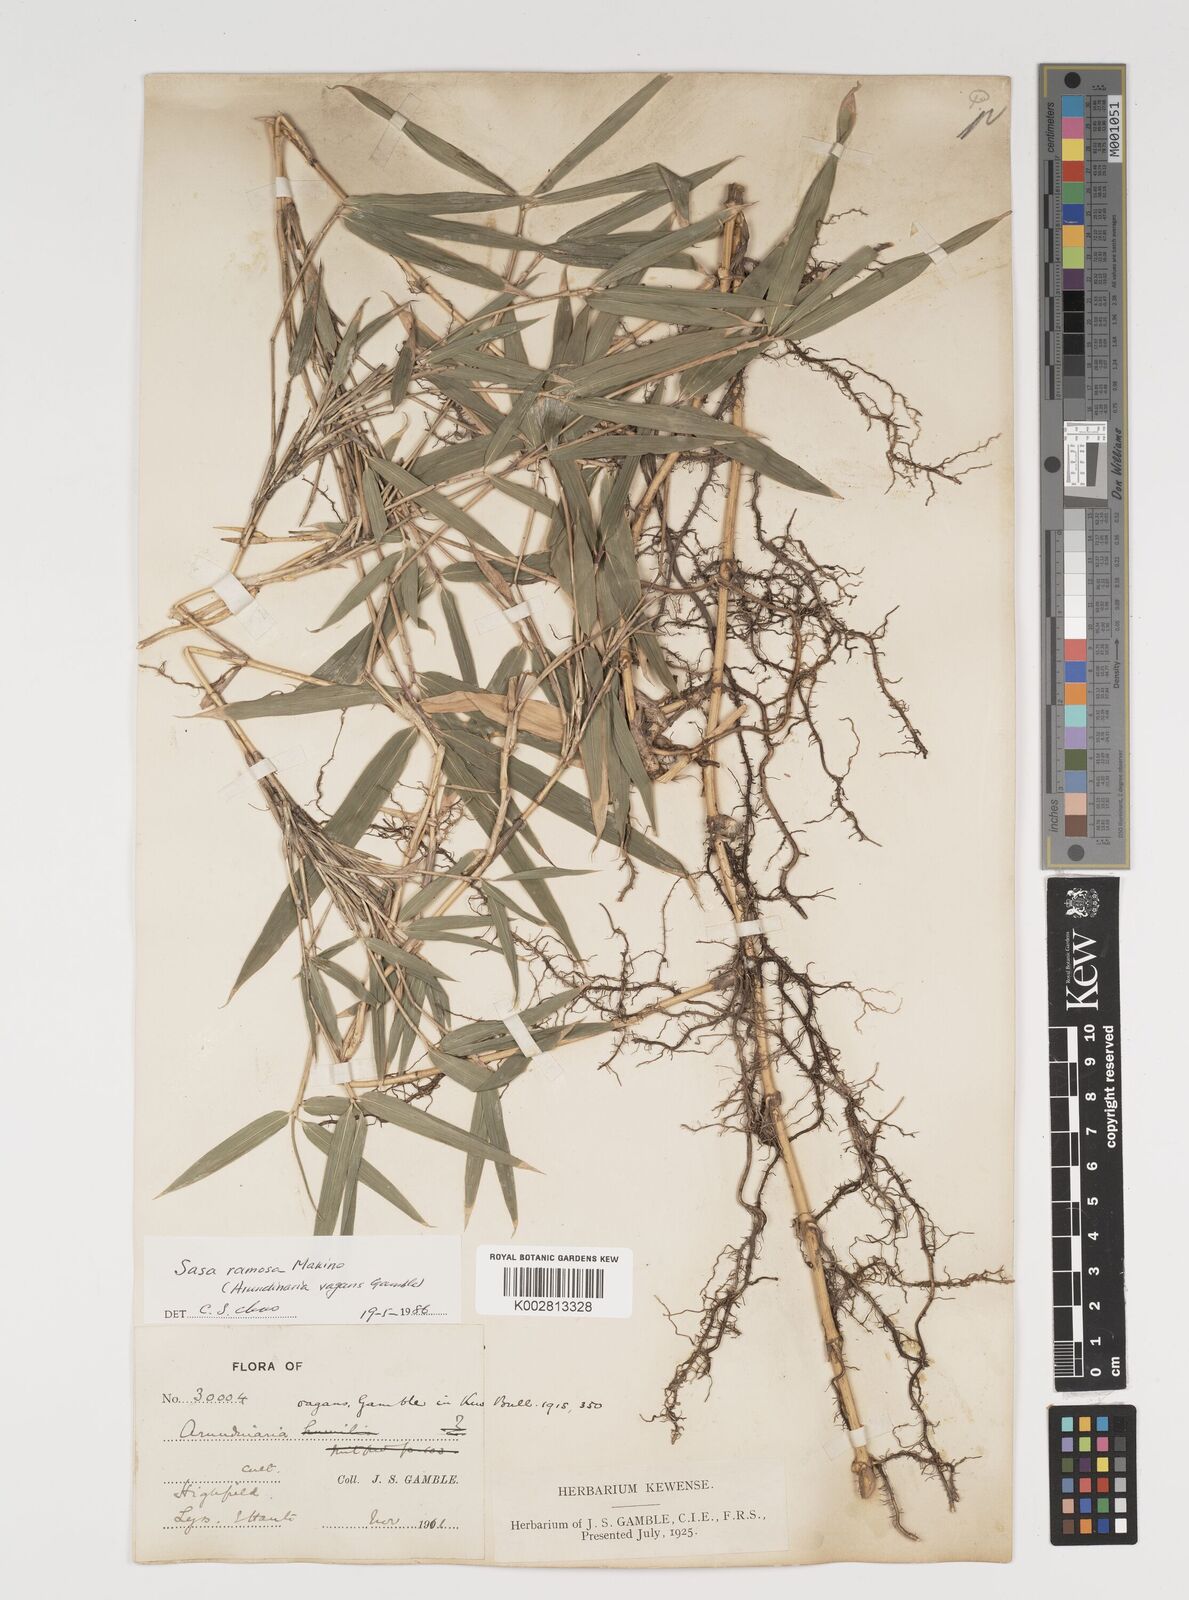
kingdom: Plantae
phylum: Tracheophyta
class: Liliopsida
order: Poales
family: Poaceae
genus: Sasaella
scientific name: Sasaella ramosa
